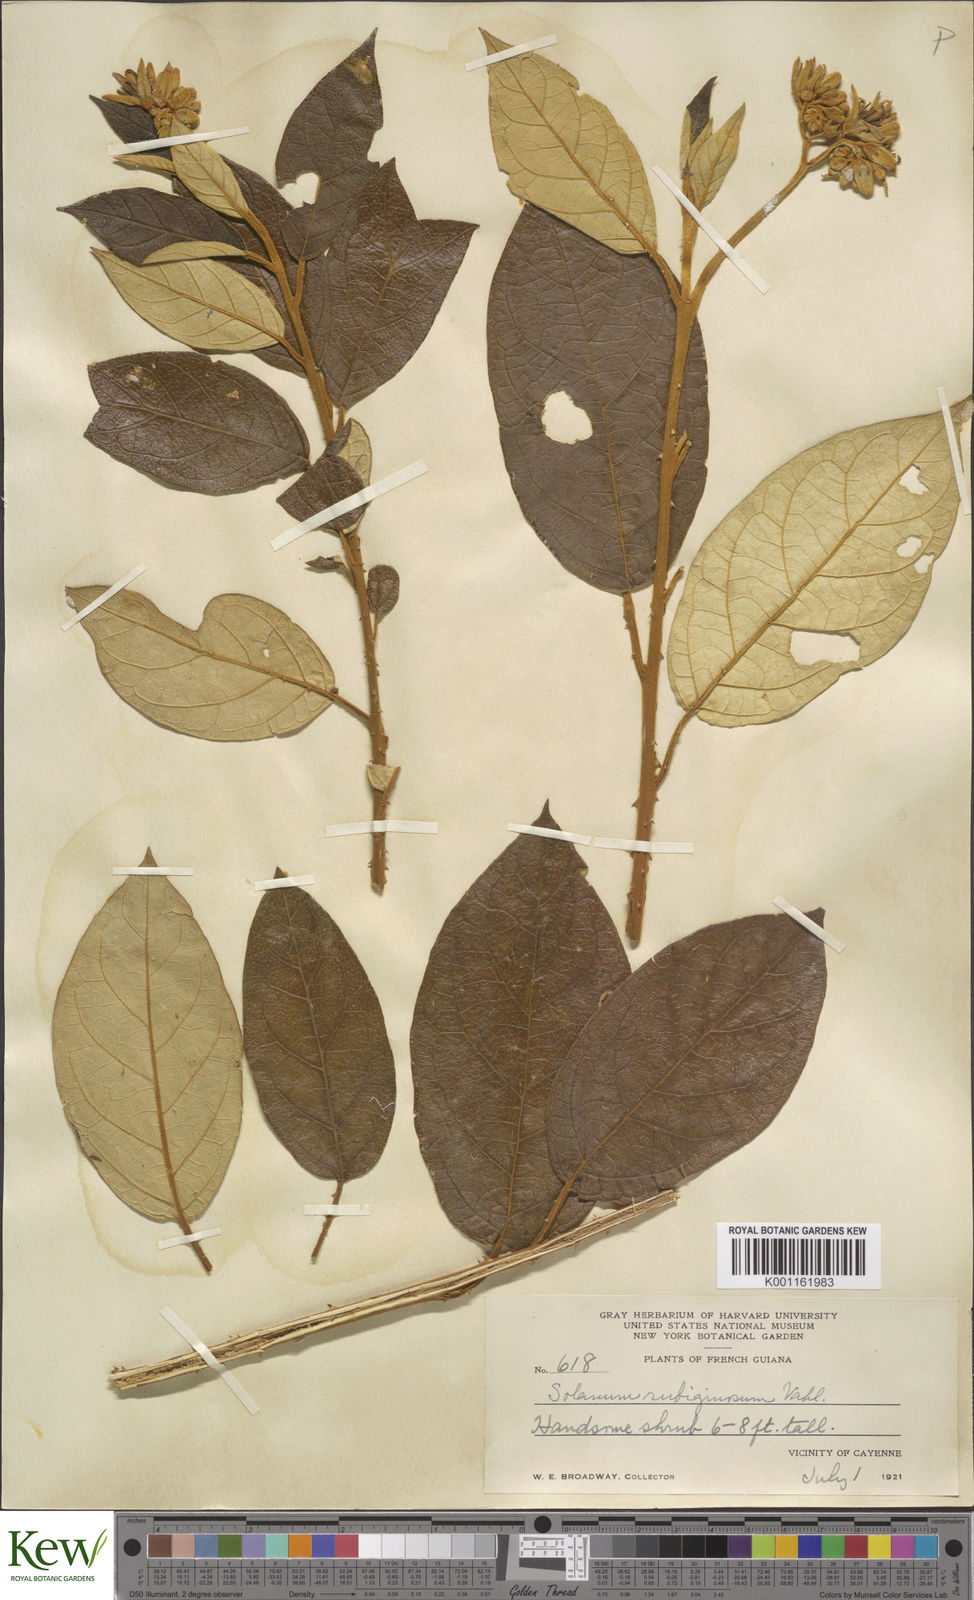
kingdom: Plantae
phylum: Tracheophyta
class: Magnoliopsida
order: Solanales
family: Solanaceae
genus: Solanum
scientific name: Solanum rubiginosum
